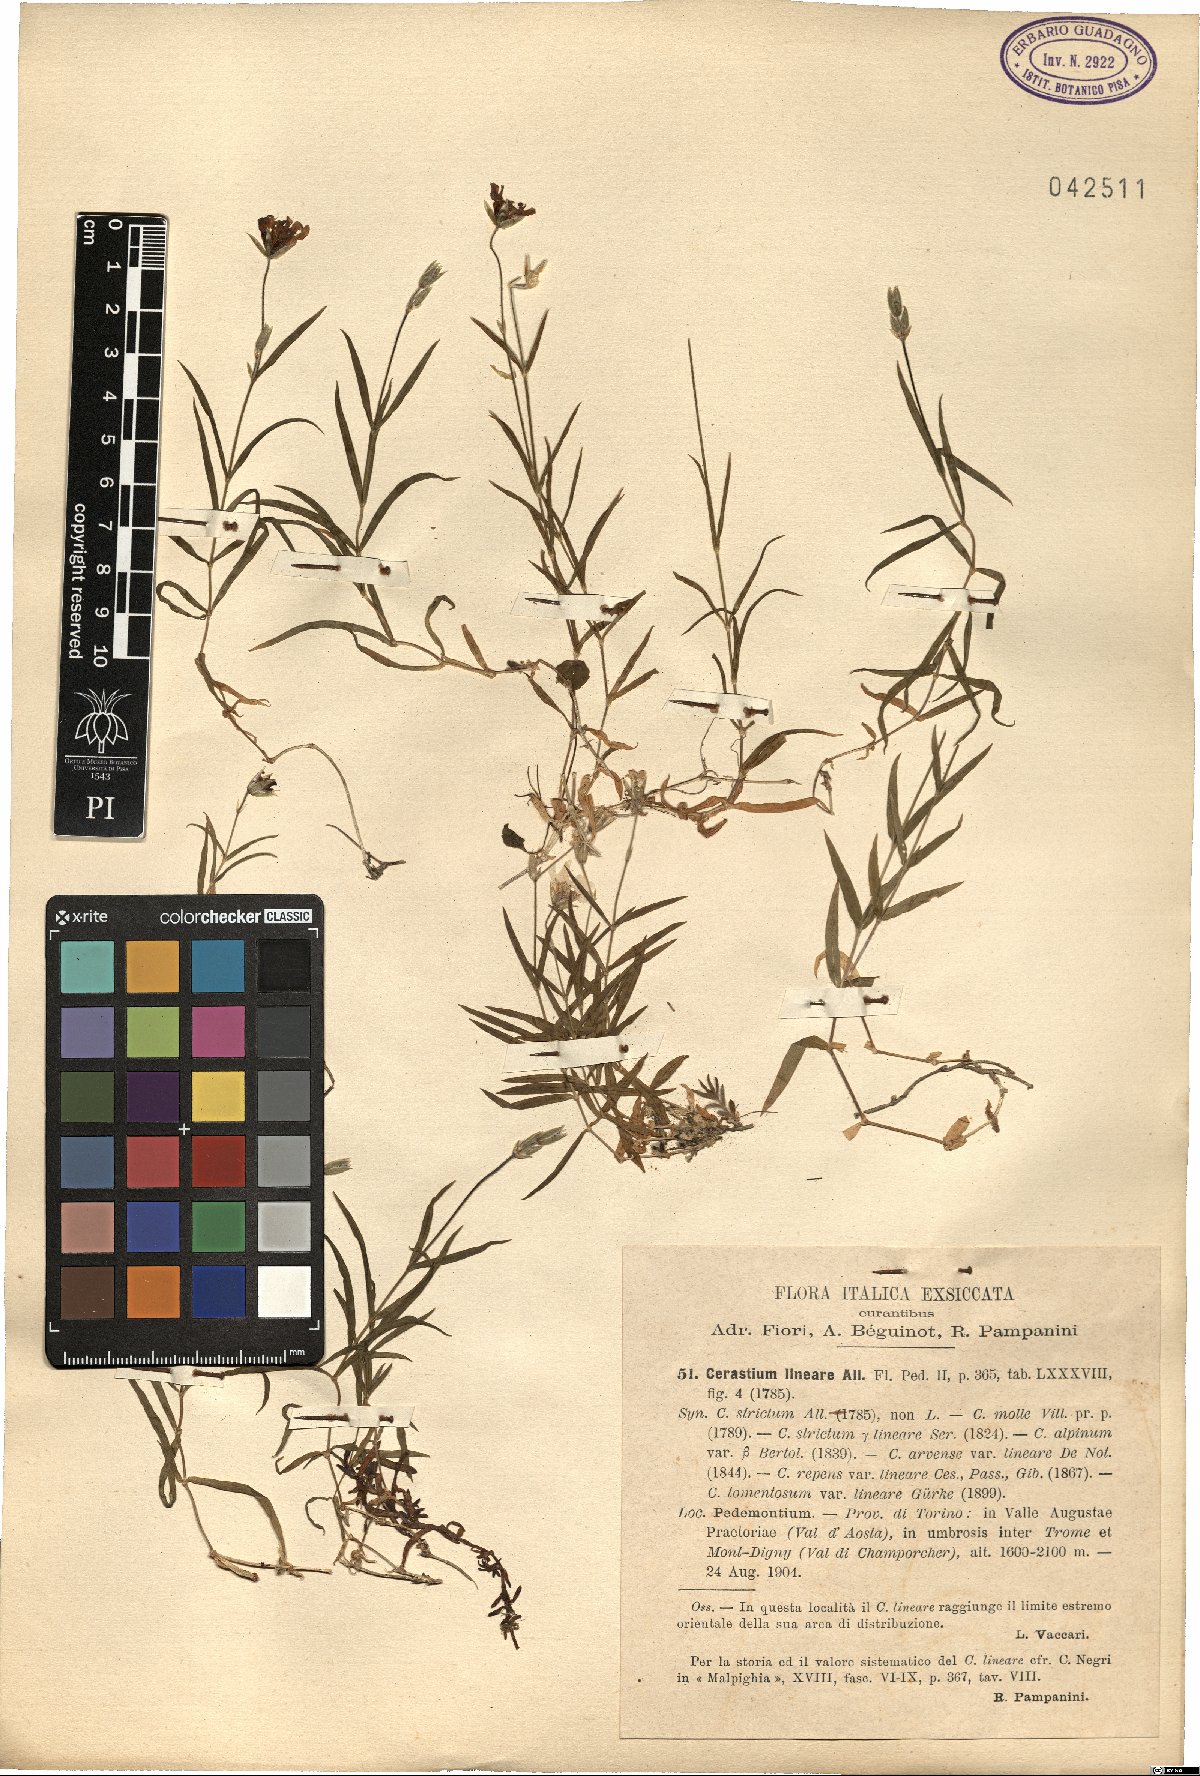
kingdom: Plantae
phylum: Tracheophyta
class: Magnoliopsida
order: Caryophyllales
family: Caryophyllaceae
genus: Cerastium
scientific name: Cerastium lineare
